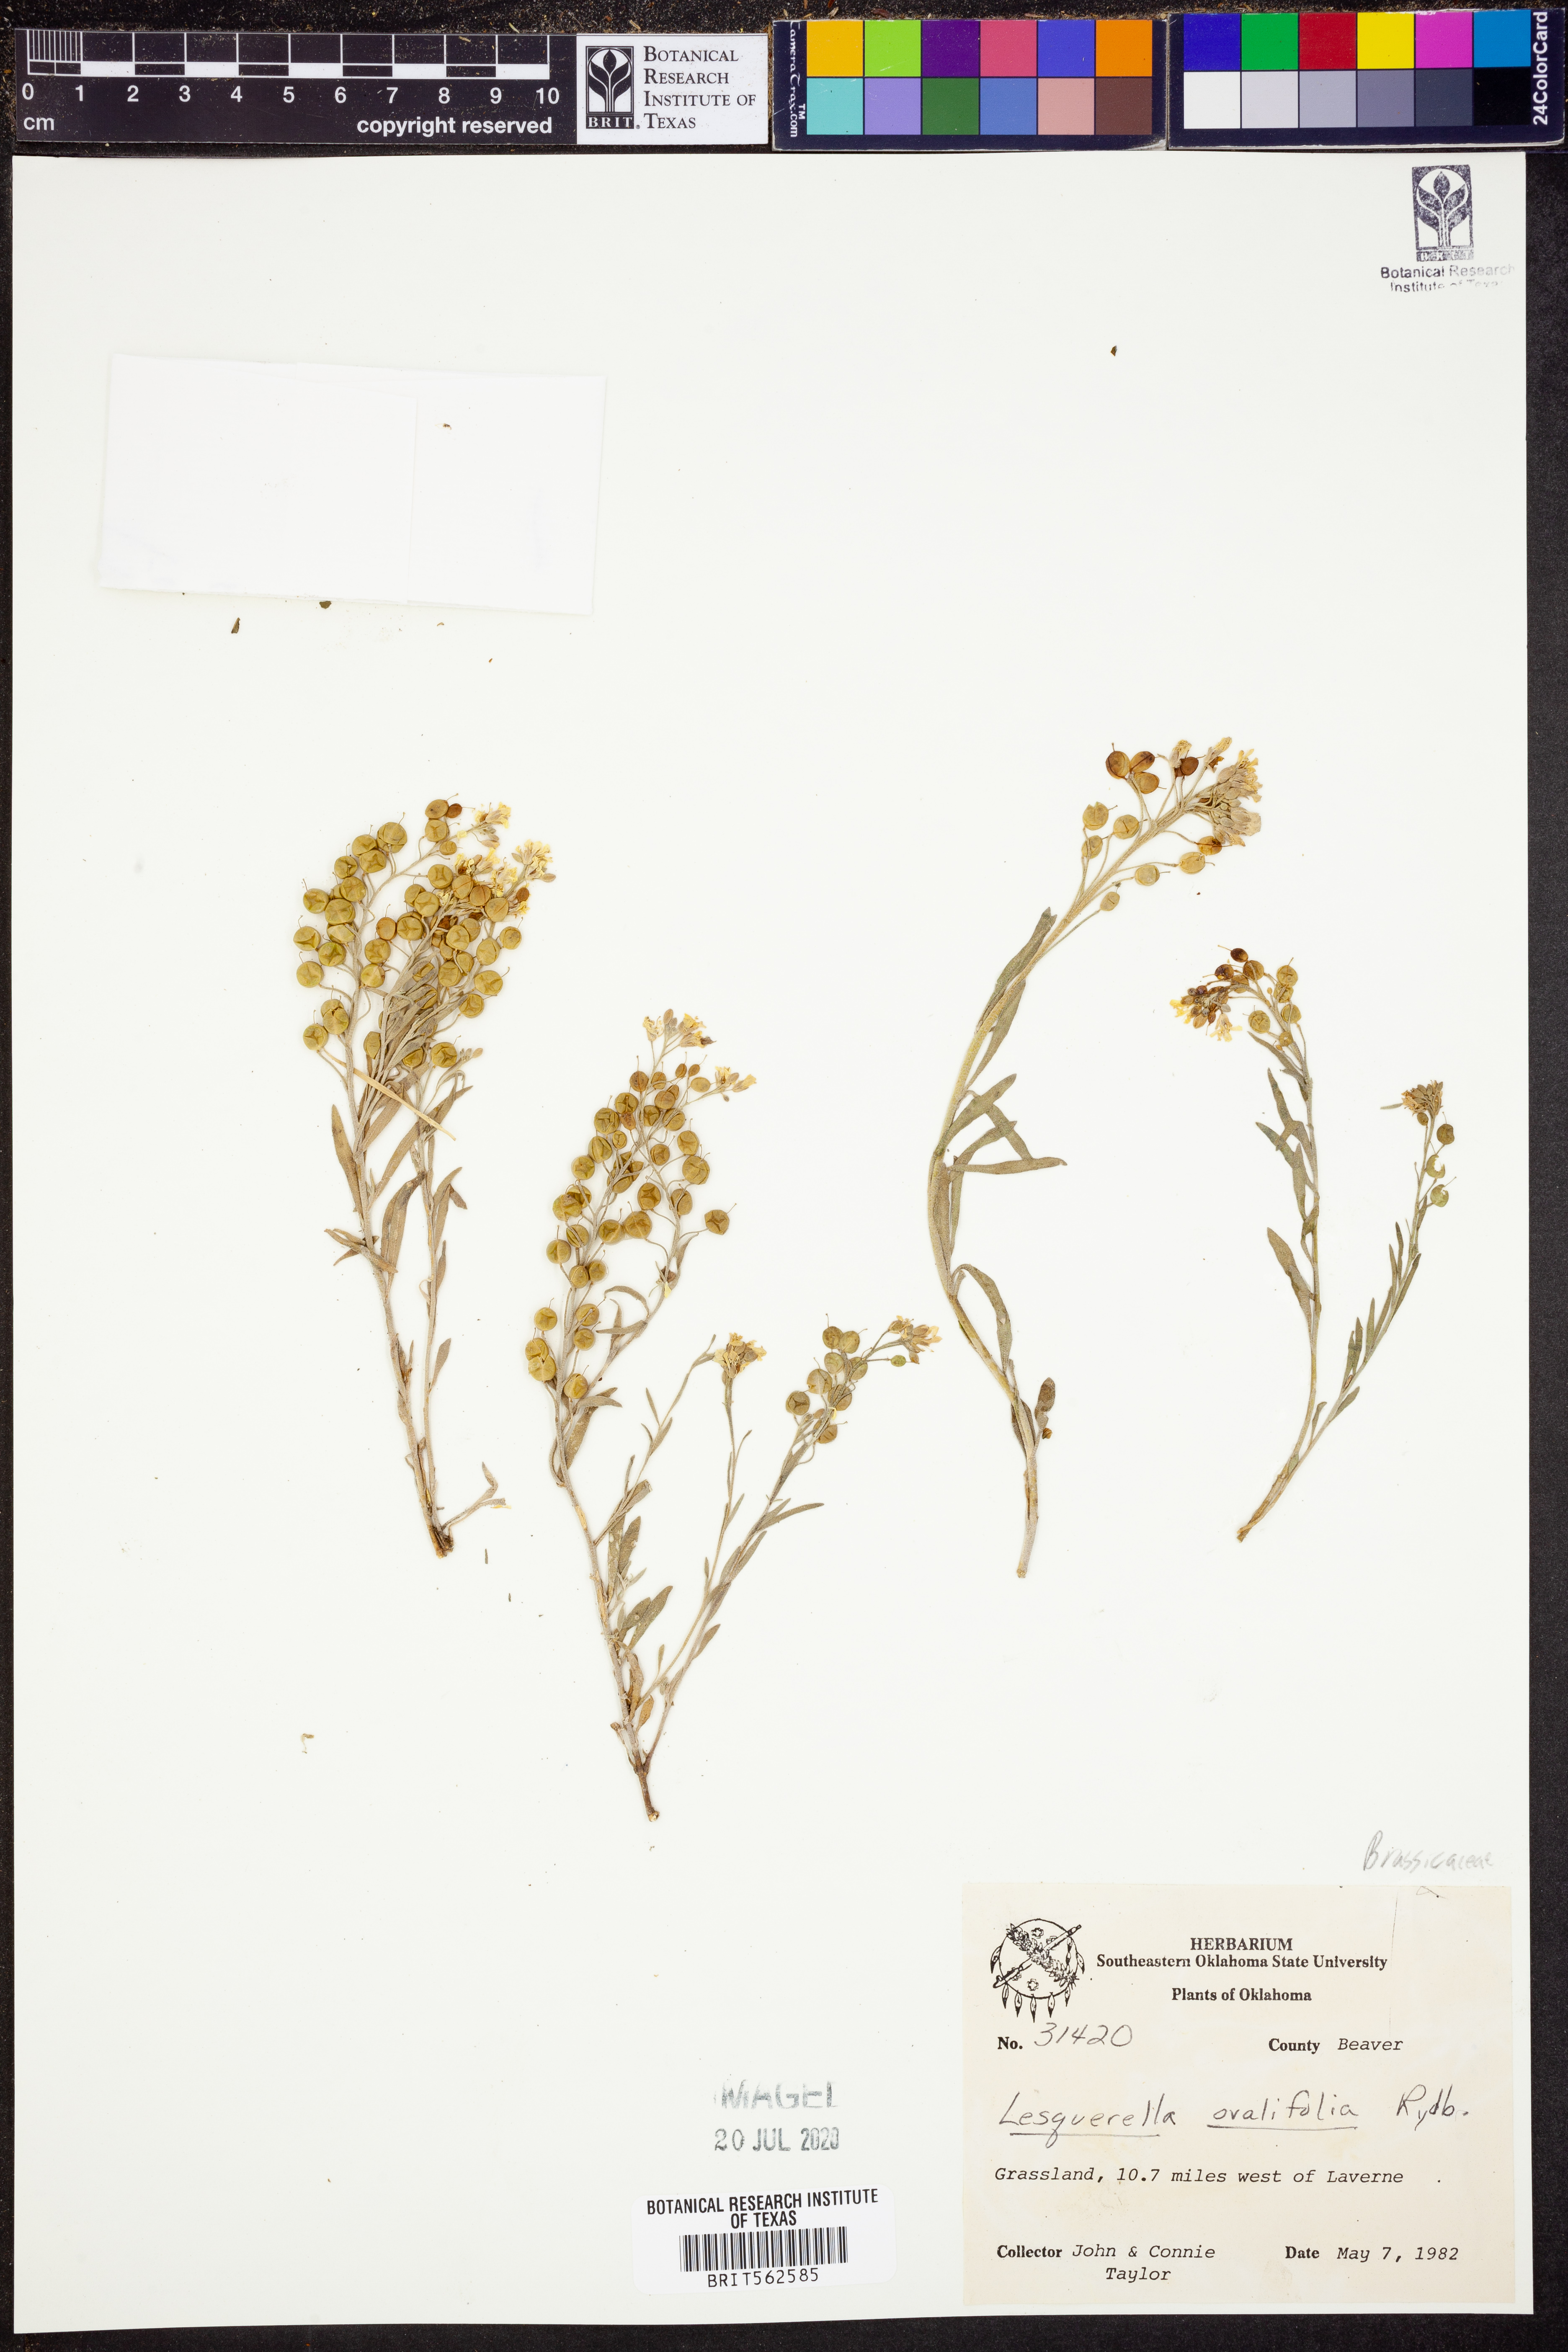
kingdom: Plantae
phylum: Tracheophyta
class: Magnoliopsida
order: Brassicales
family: Brassicaceae
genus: Physaria
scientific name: Physaria ovalifolia
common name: Round-leaf bladderpod
